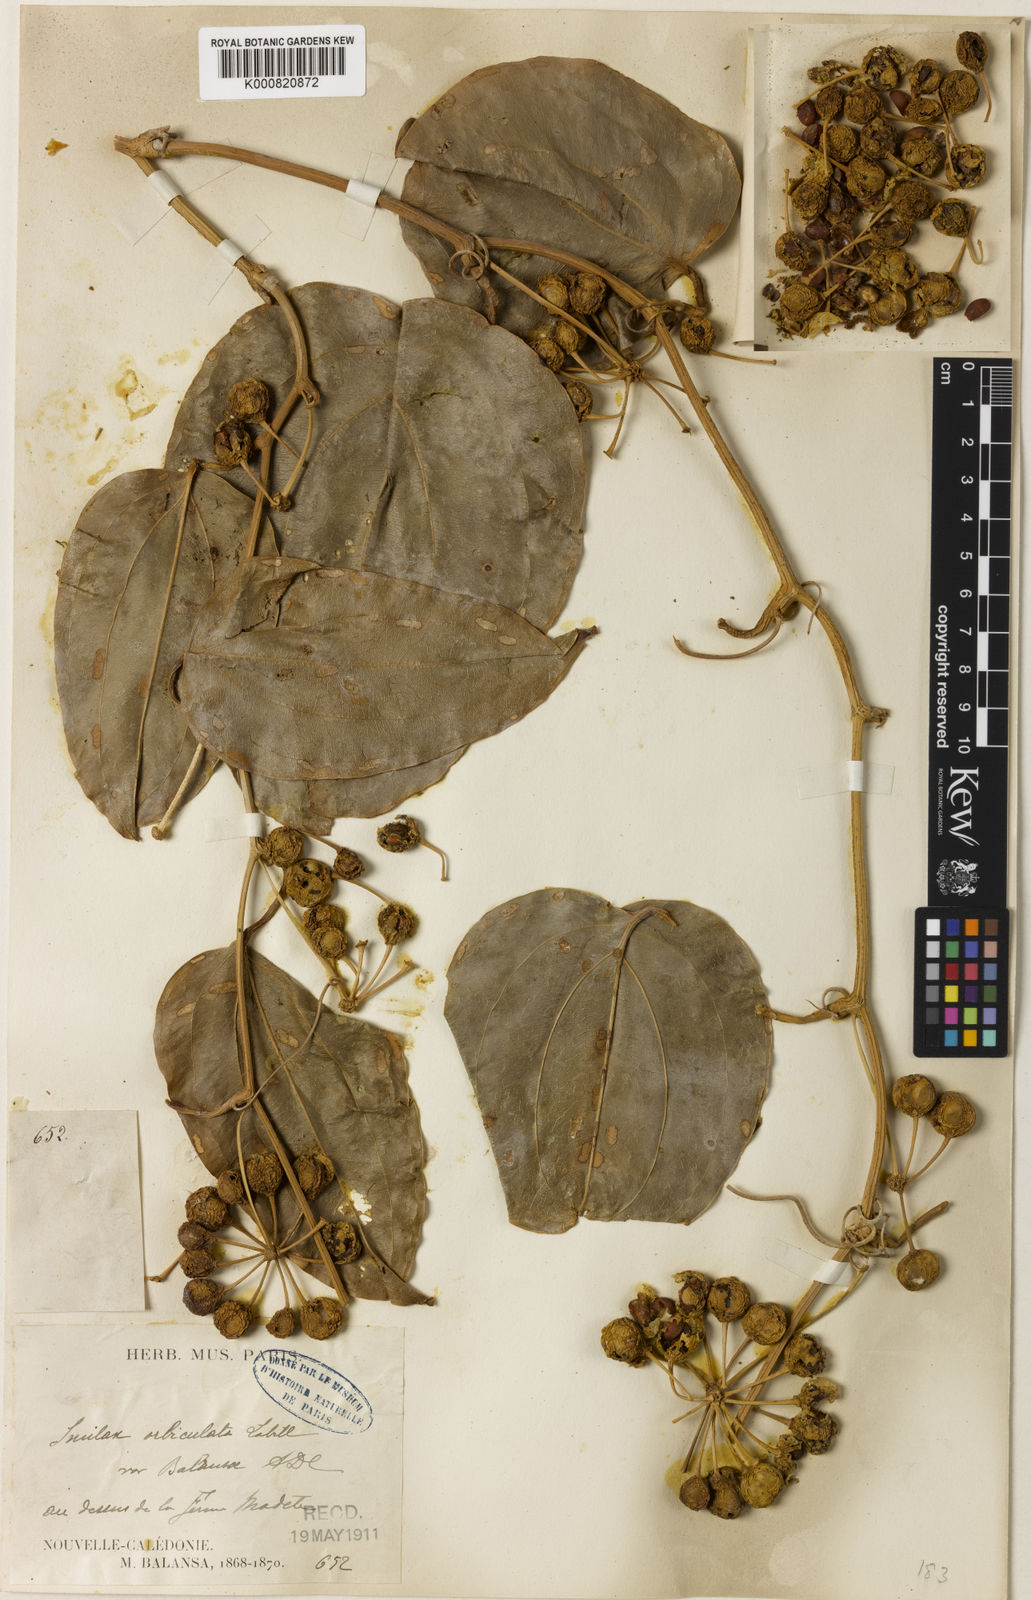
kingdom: Plantae
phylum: Tracheophyta
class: Liliopsida
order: Liliales
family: Smilacaceae
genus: Smilax
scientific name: Smilax orbiculata
